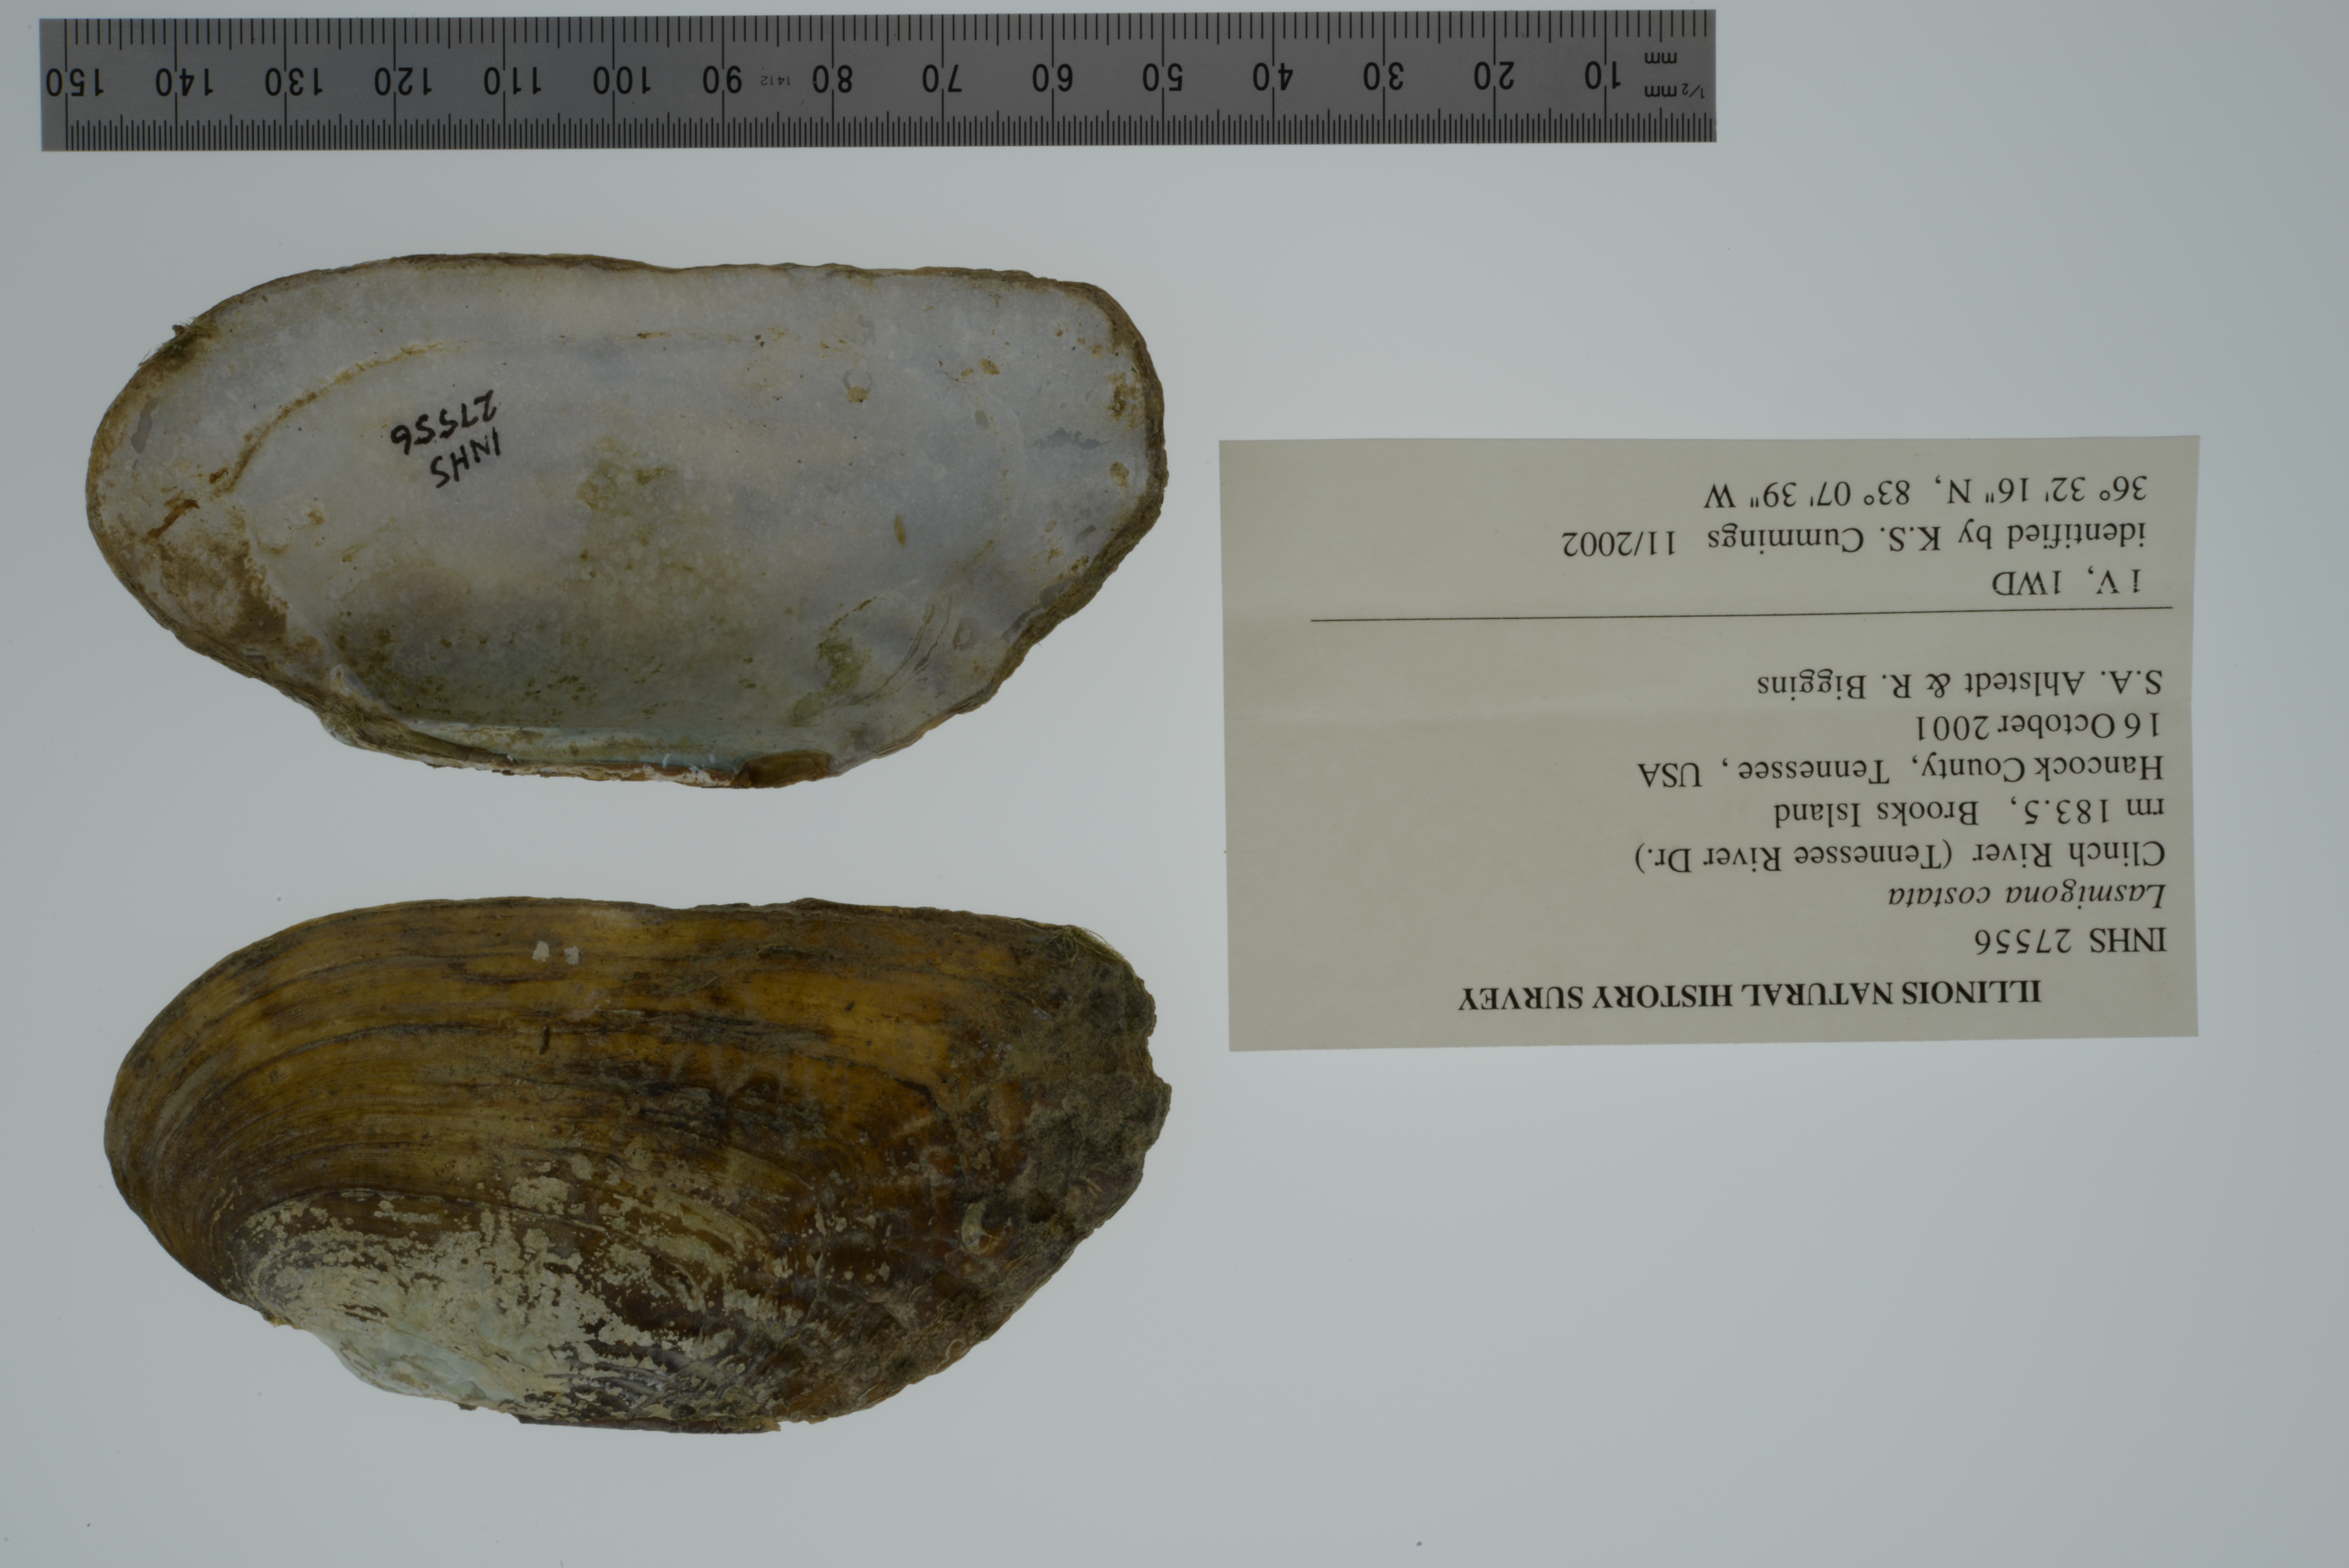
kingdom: Animalia
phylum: Mollusca
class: Bivalvia
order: Unionida
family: Unionidae
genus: Lasmigona
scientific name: Lasmigona costata
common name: Flutedshell
